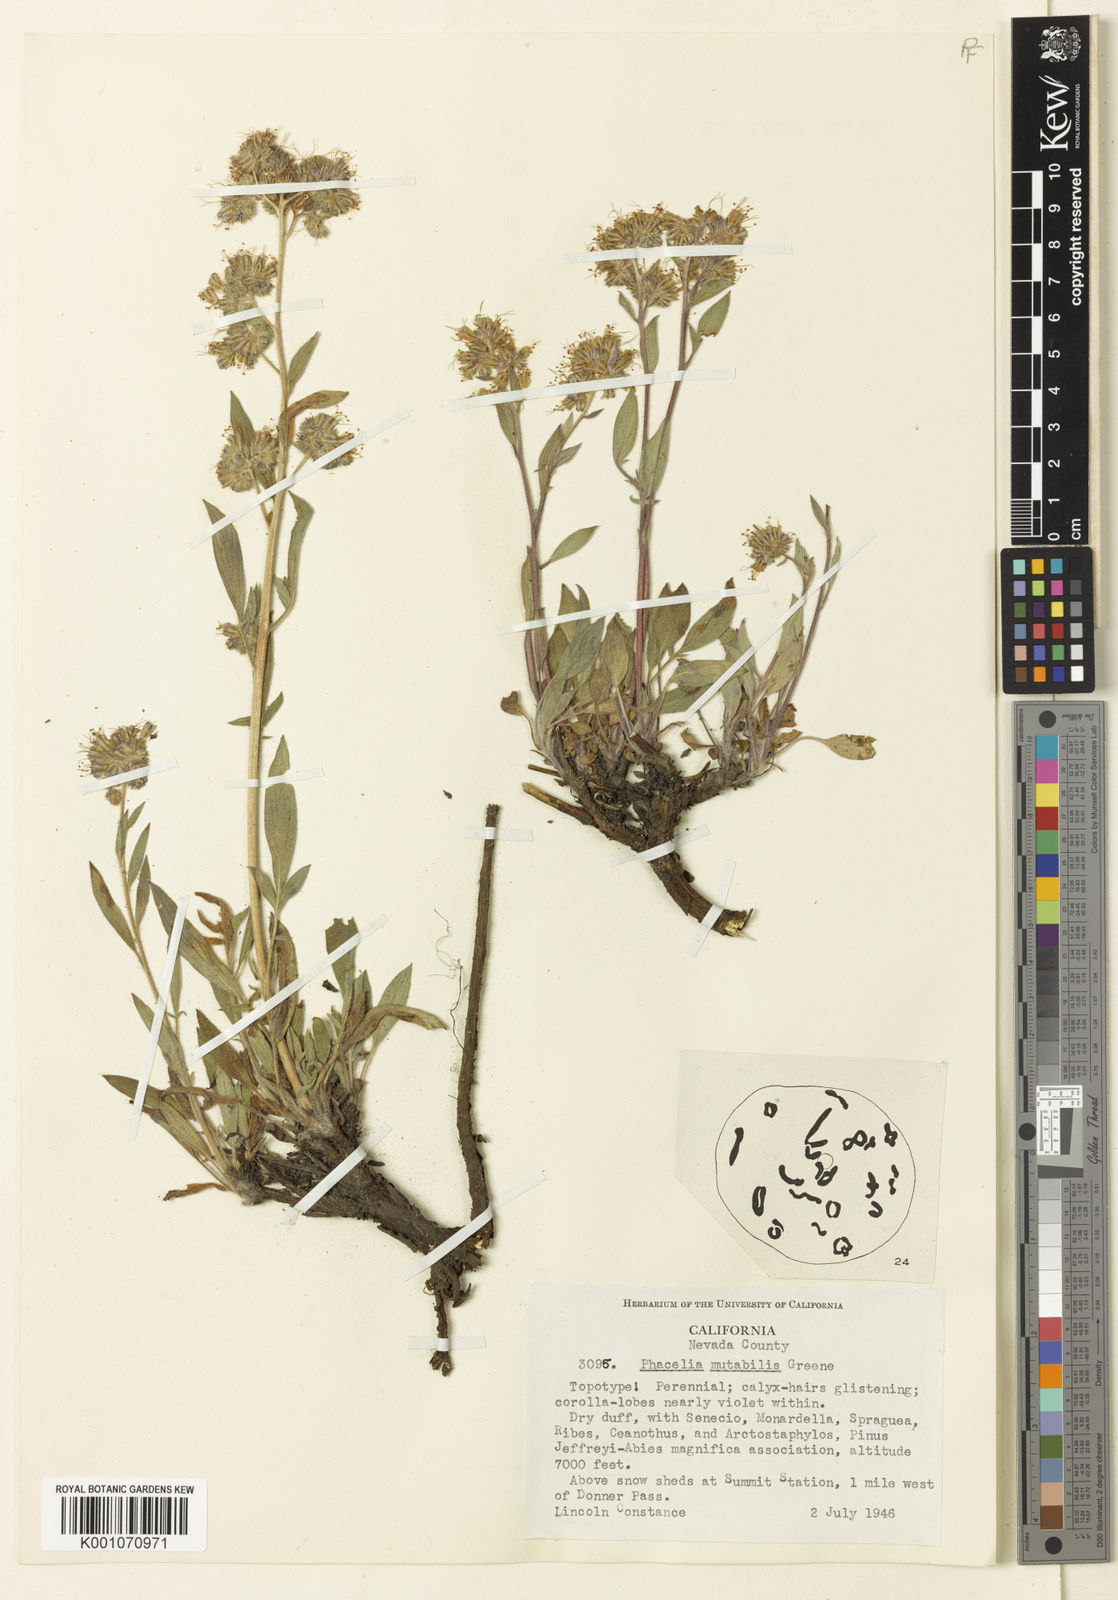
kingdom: Plantae
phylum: Tracheophyta
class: Magnoliopsida
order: Boraginales
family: Hydrophyllaceae
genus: Phacelia
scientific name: Phacelia mutabilis
